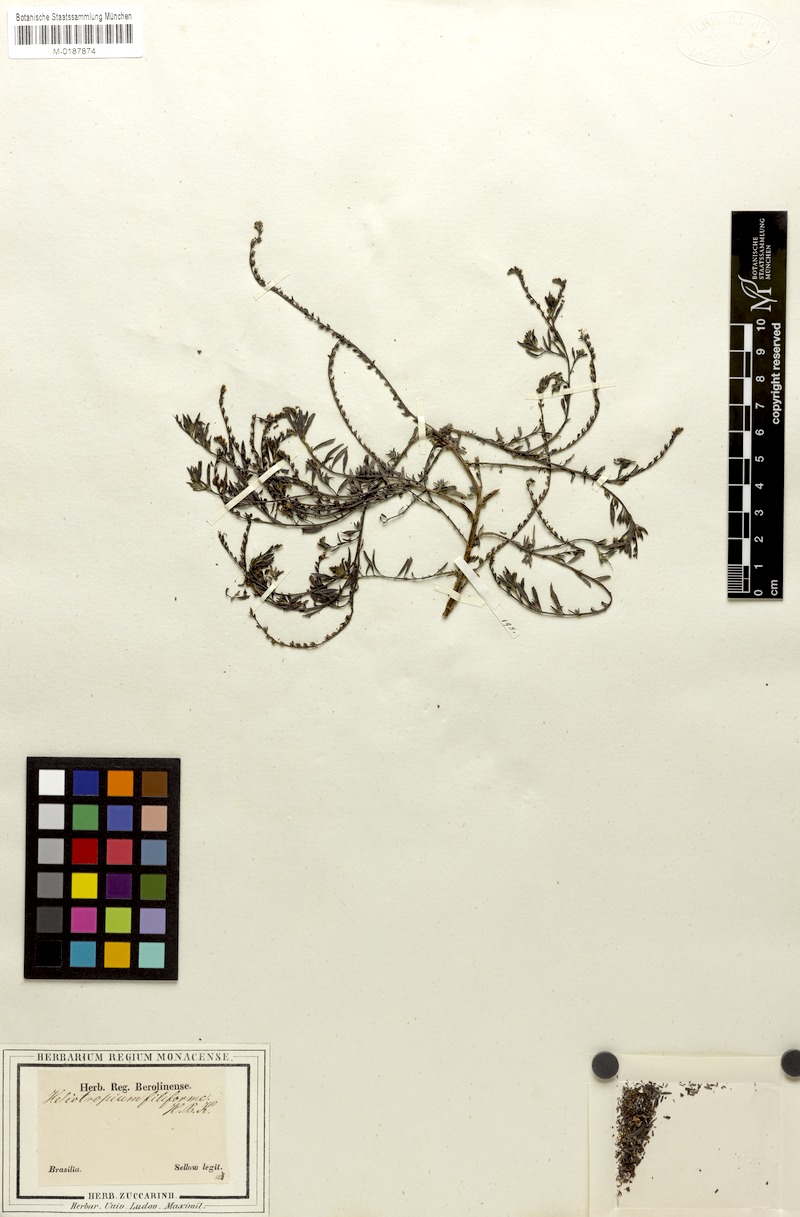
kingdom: Plantae
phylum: Tracheophyta
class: Magnoliopsida
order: Boraginales
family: Heliotropiaceae
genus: Euploca
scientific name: Euploca filiformis
